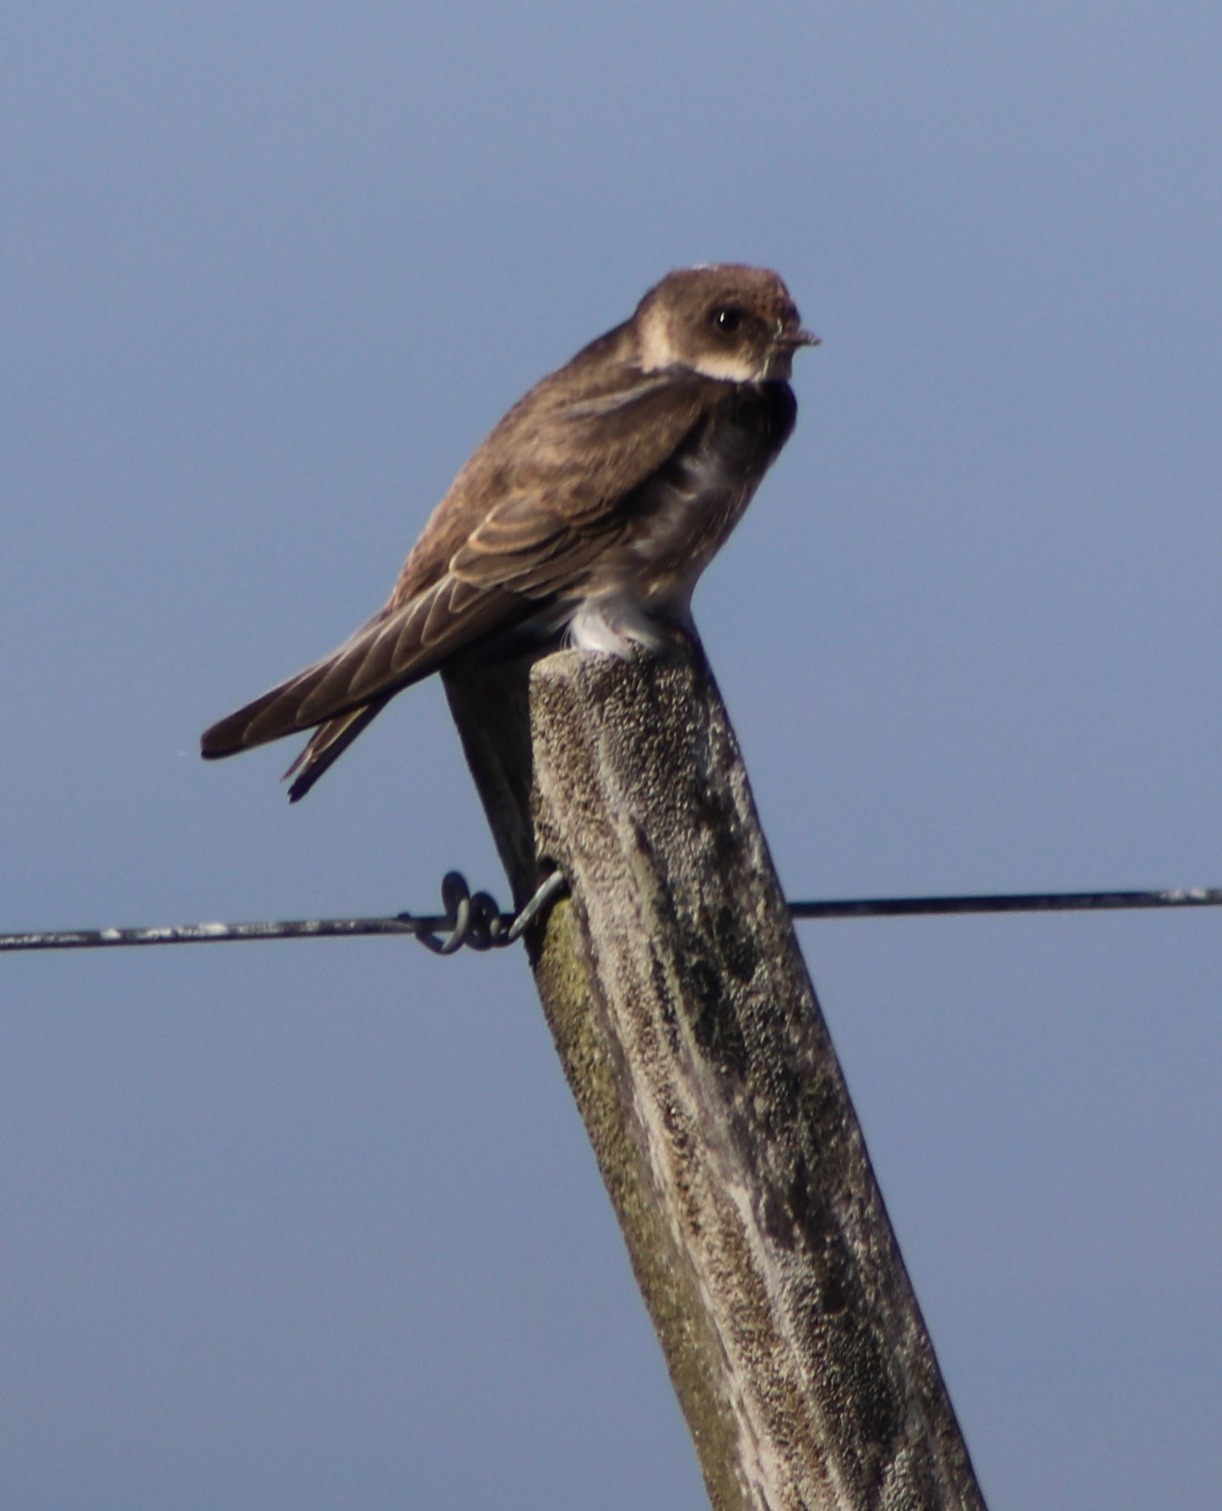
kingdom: Animalia
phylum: Chordata
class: Aves
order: Passeriformes
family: Hirundinidae
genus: Riparia
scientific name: Riparia riparia
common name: Digesvale
